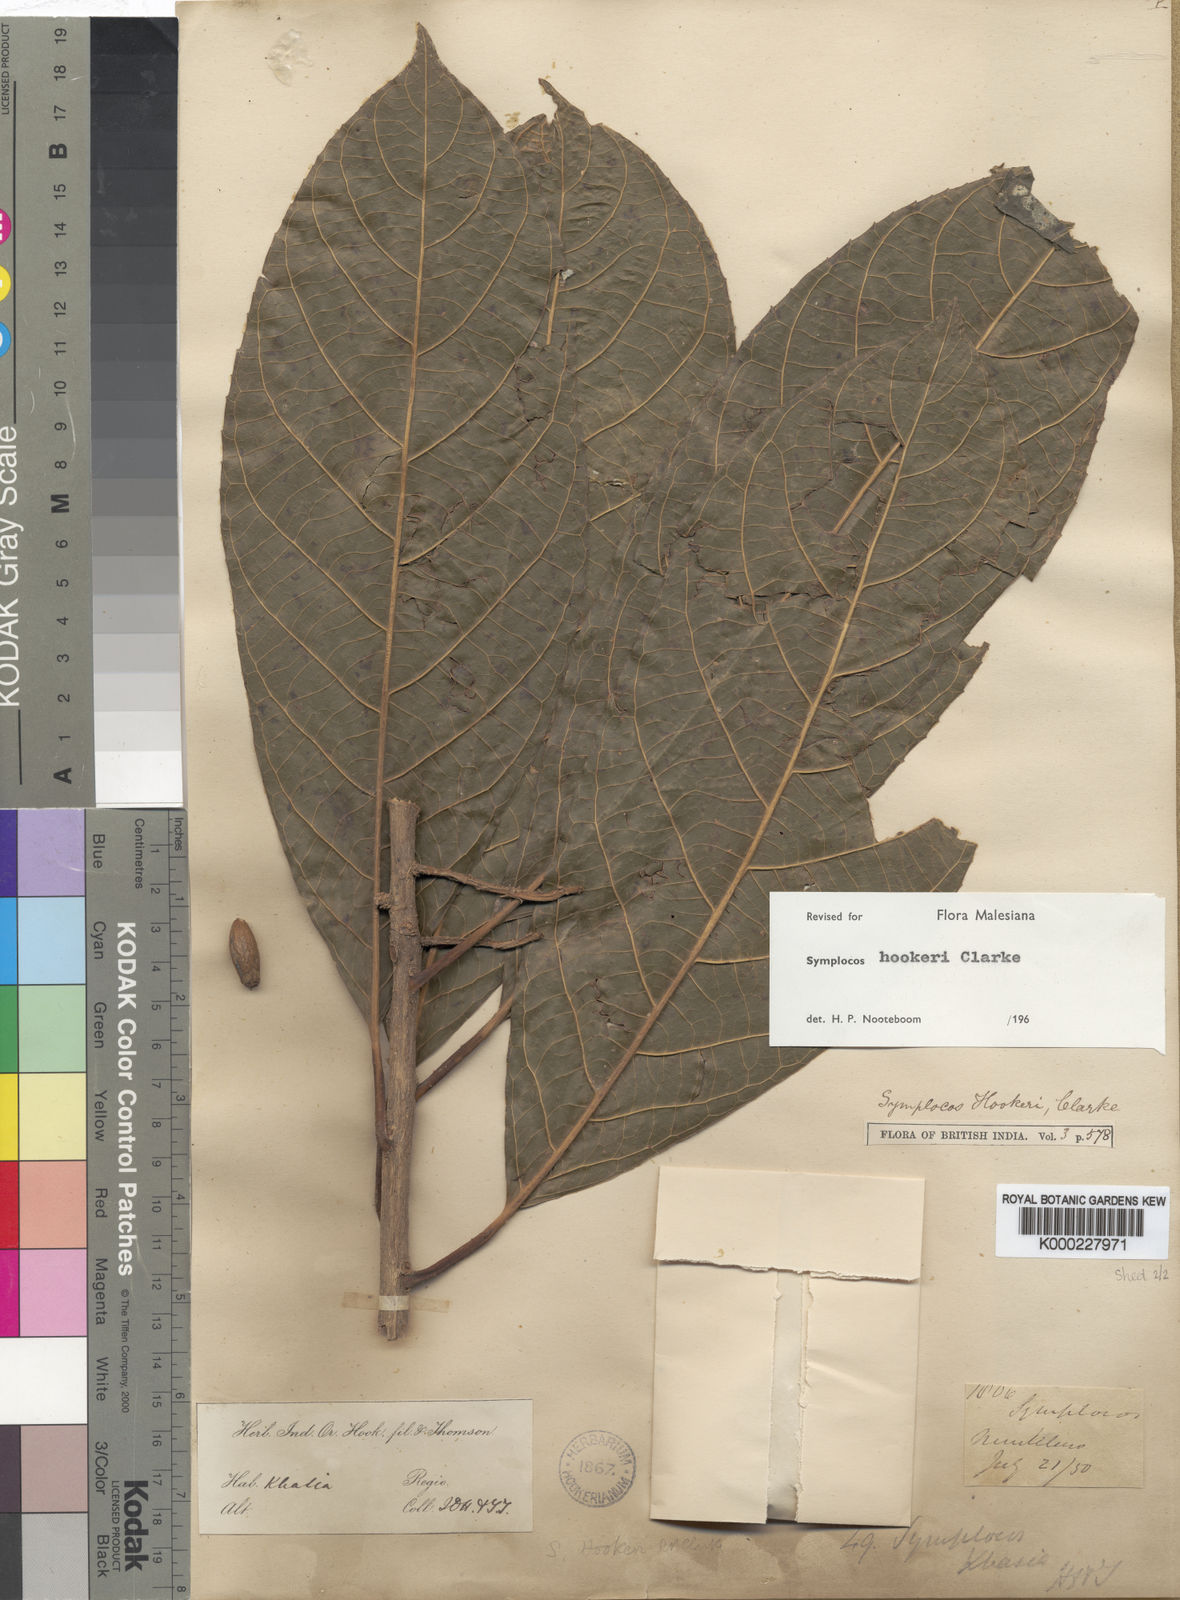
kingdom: Plantae
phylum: Tracheophyta
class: Magnoliopsida
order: Ericales
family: Symplocaceae
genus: Symplocos
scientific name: Symplocos hookeri
